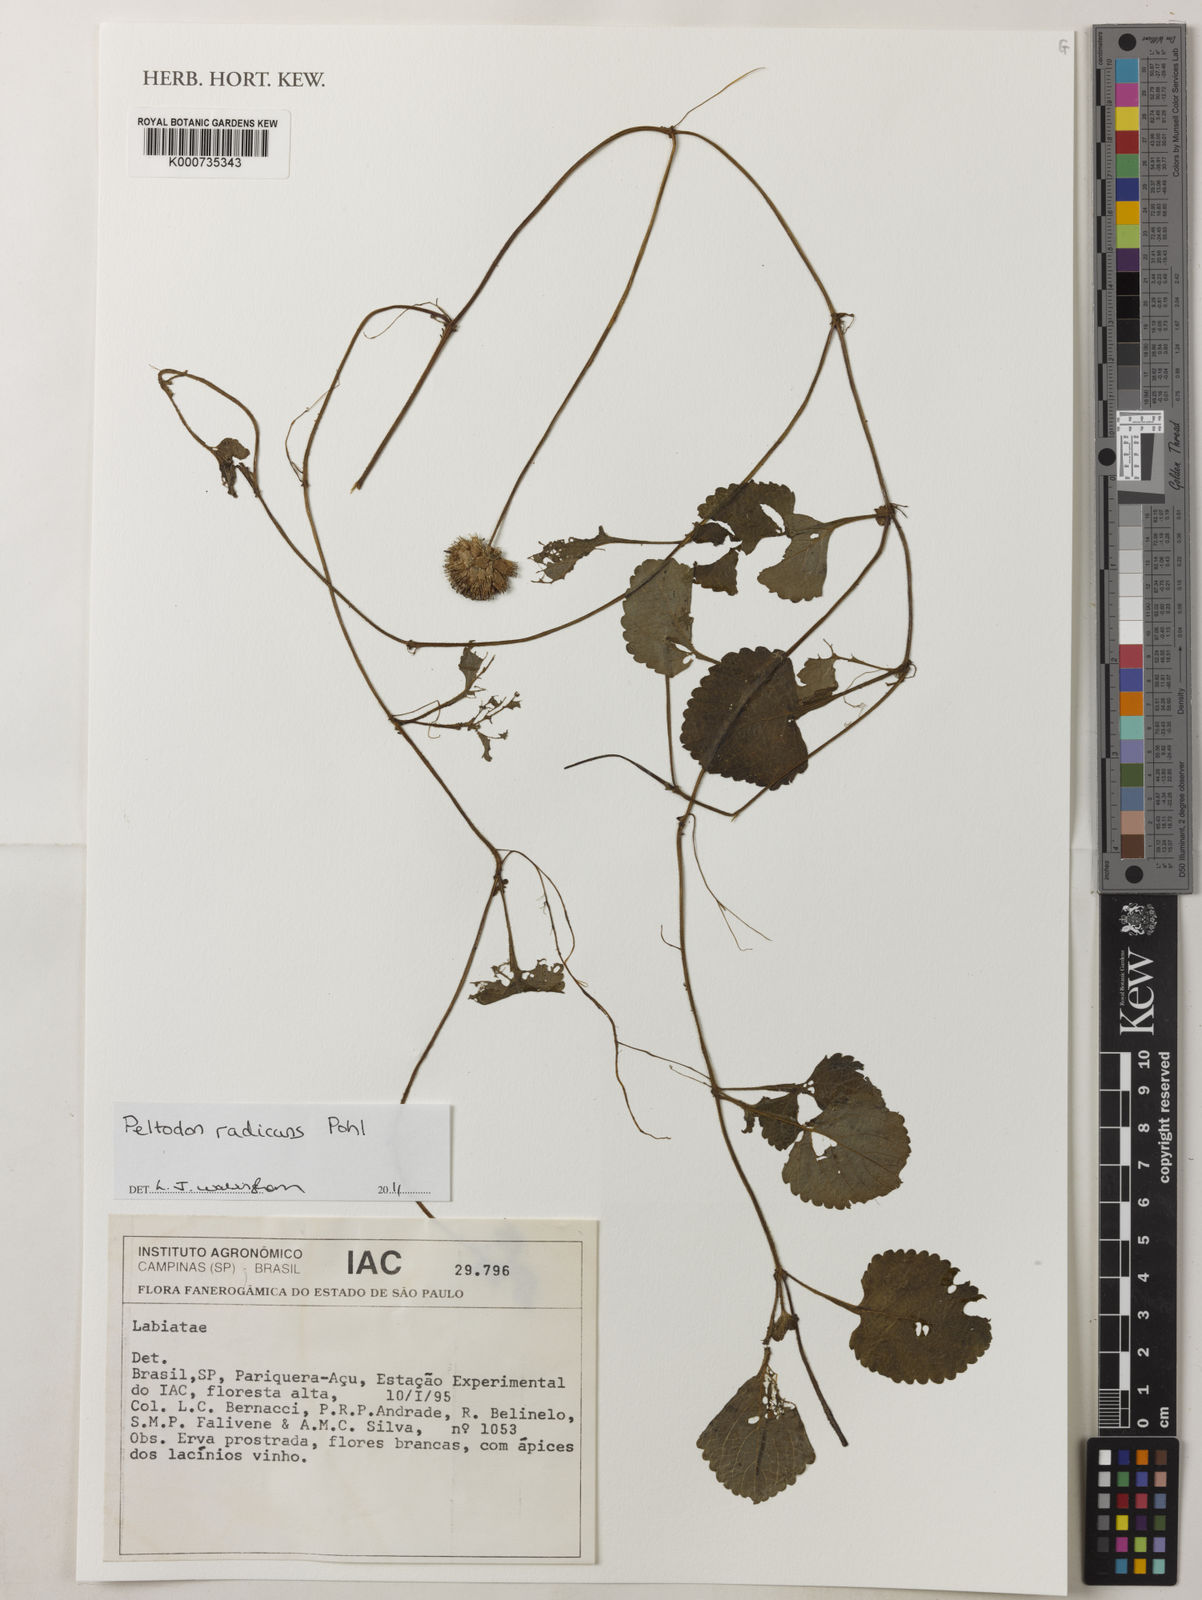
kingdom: Plantae
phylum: Tracheophyta
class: Magnoliopsida
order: Lamiales
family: Lamiaceae
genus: Hyptis
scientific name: Hyptis radicans
